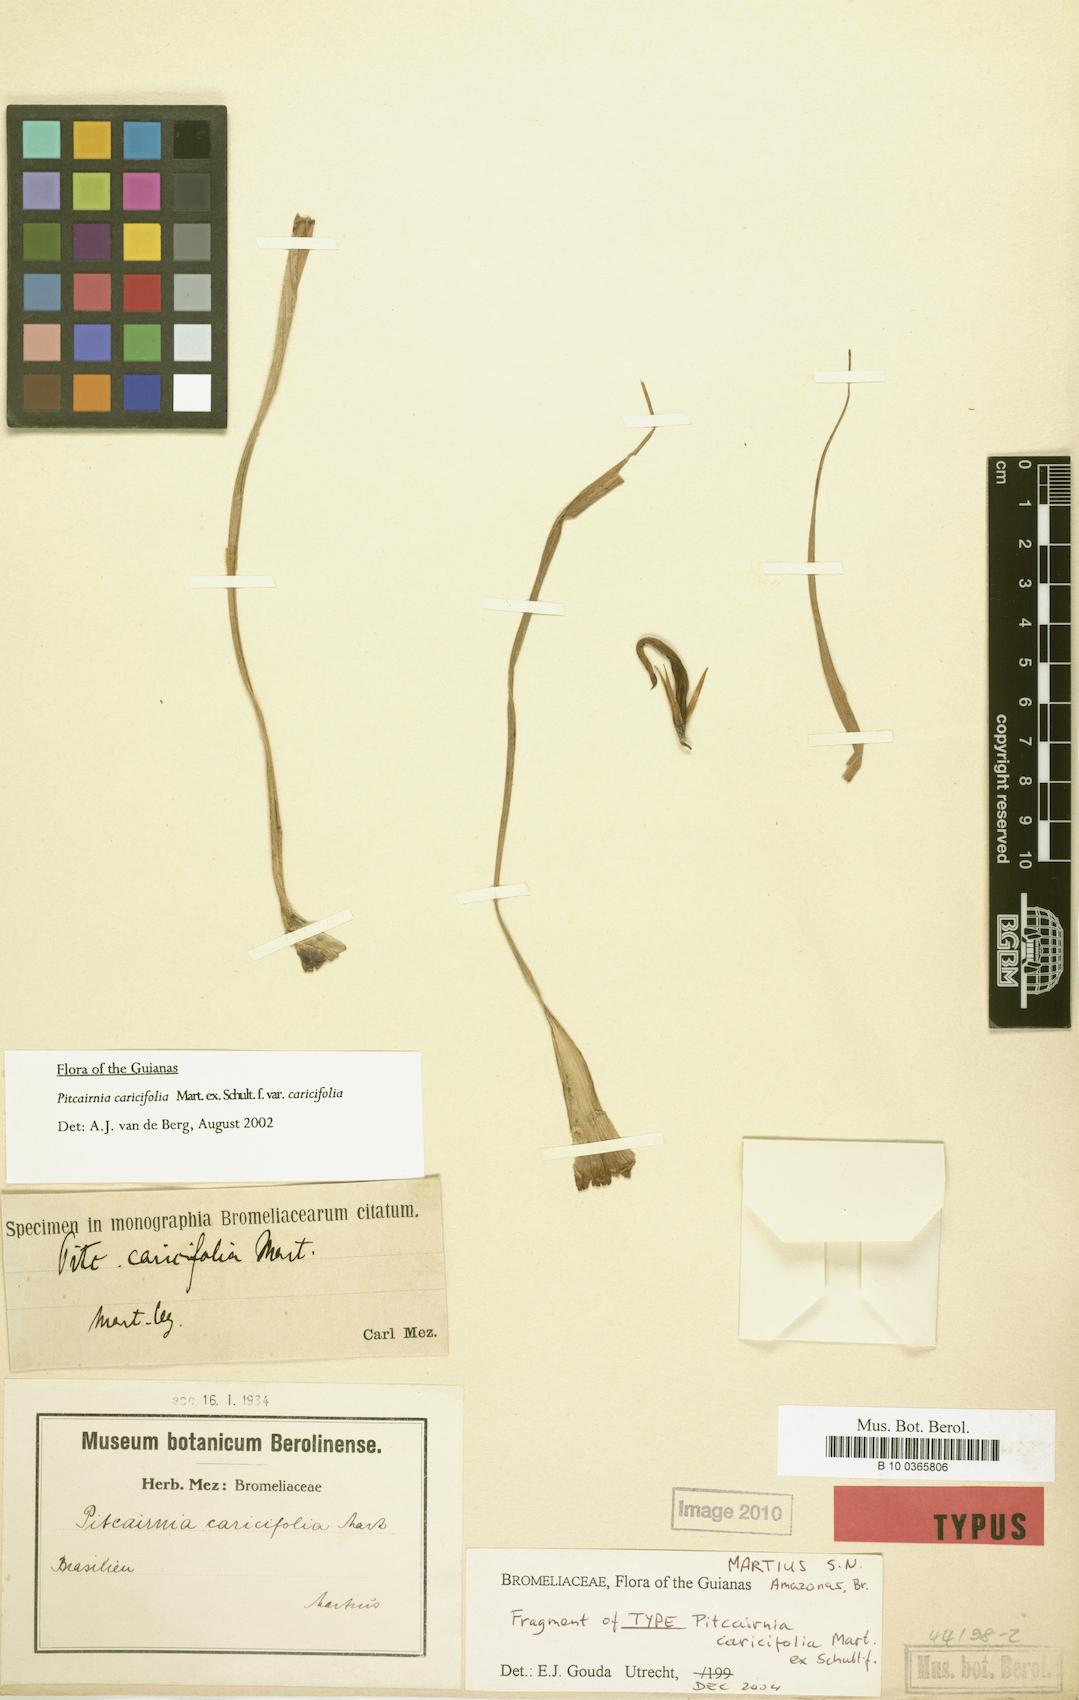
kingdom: Plantae
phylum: Tracheophyta
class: Liliopsida
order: Poales
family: Bromeliaceae
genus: Pitcairnia
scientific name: Pitcairnia caricifolia
